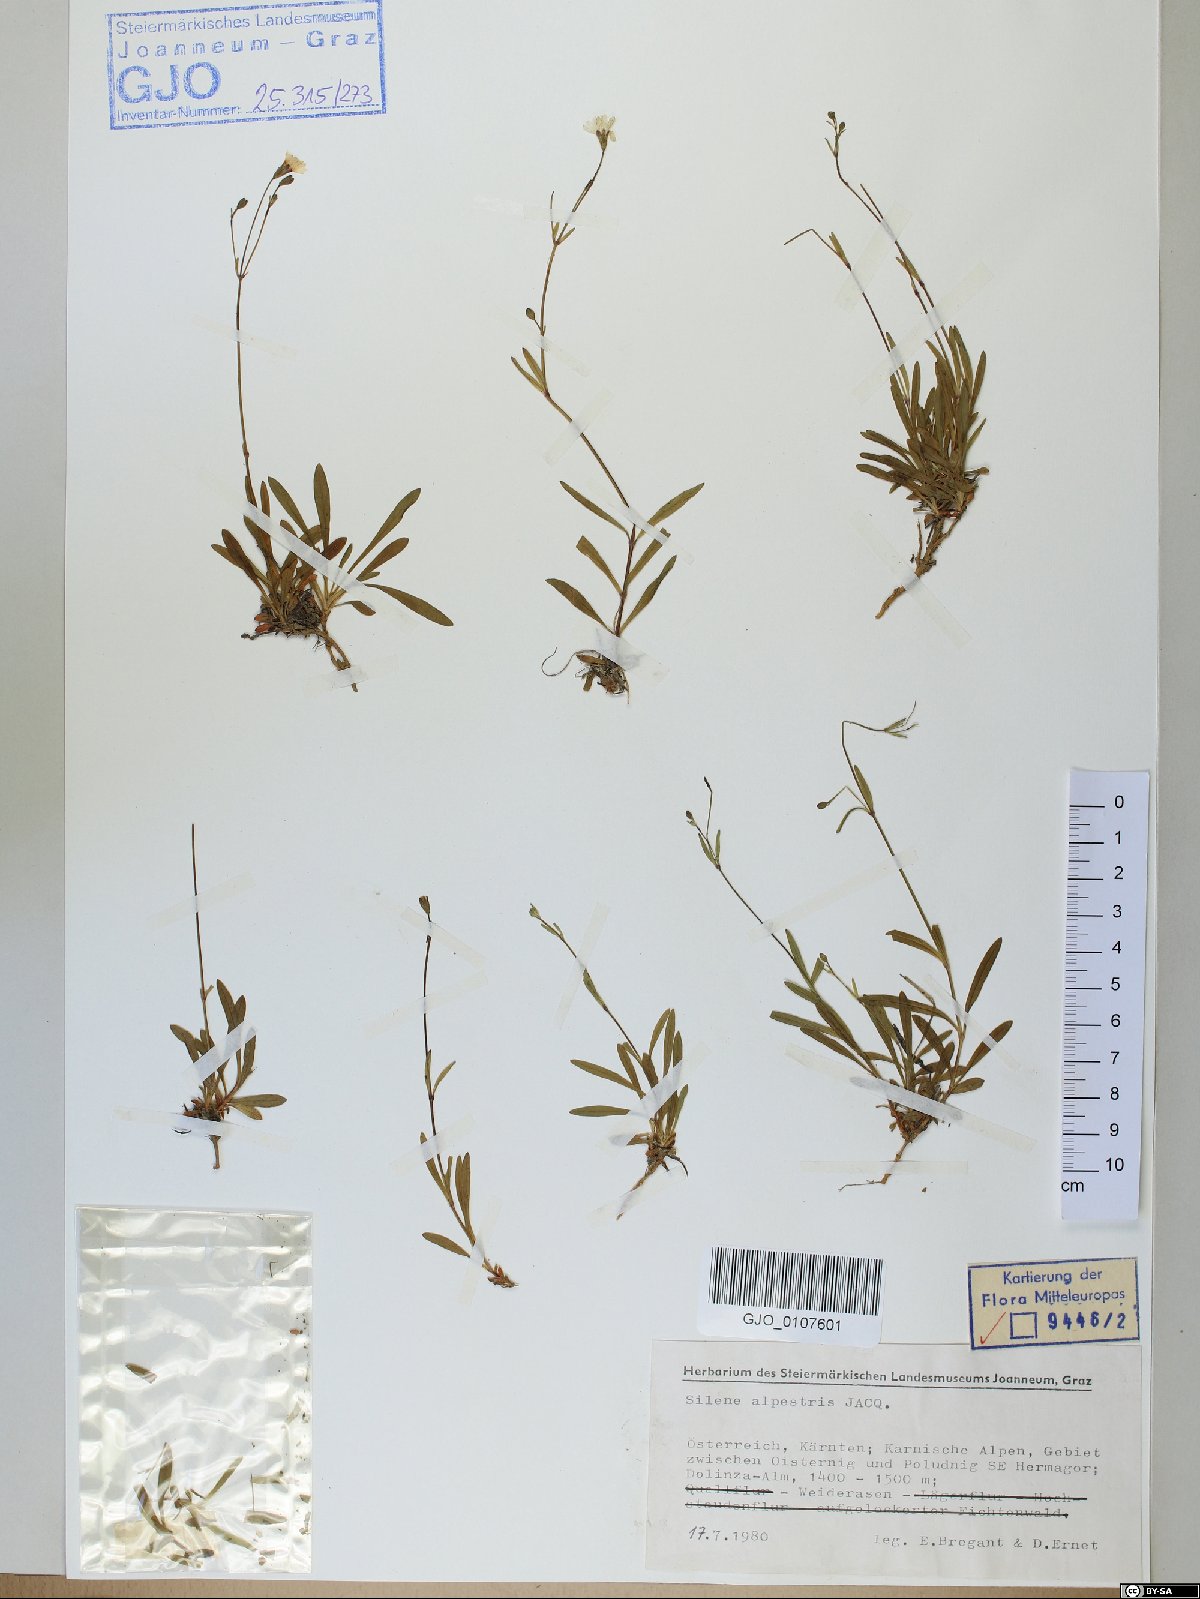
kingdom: Plantae
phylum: Tracheophyta
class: Magnoliopsida
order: Caryophyllales
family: Caryophyllaceae
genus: Heliosperma
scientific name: Heliosperma alpestre
